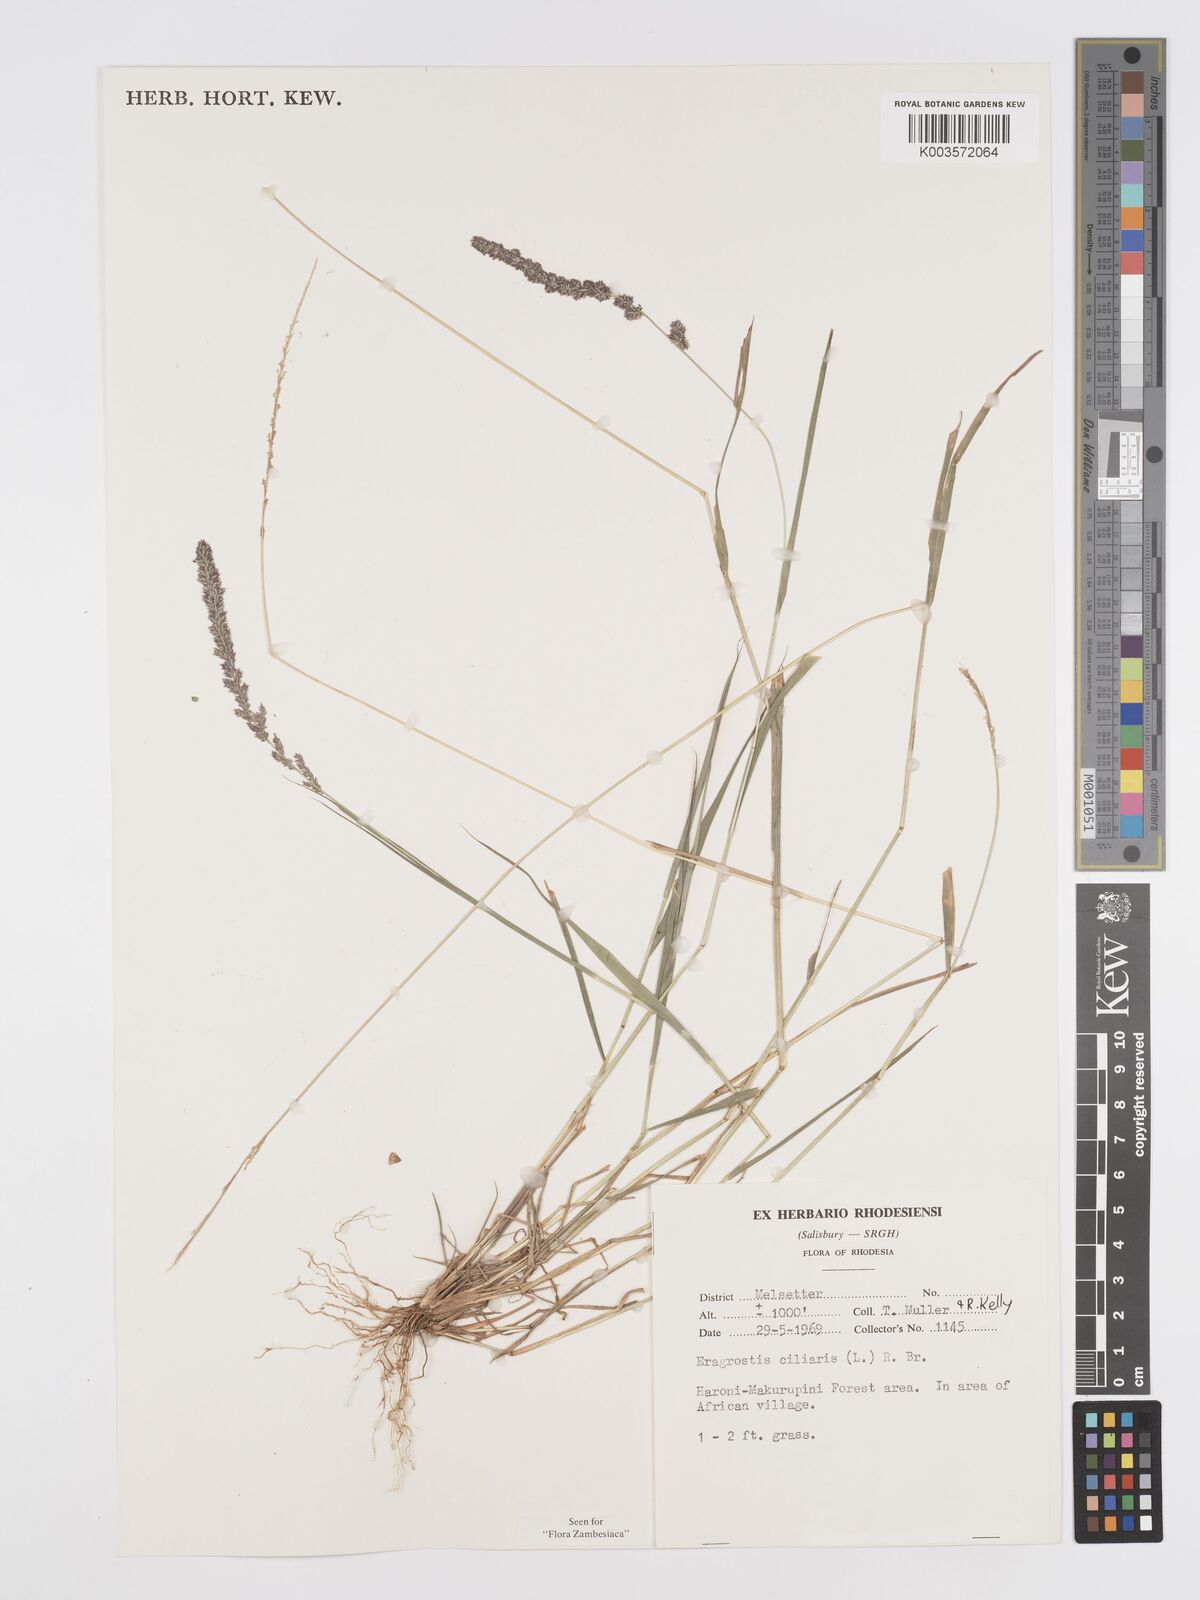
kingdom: Plantae
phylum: Tracheophyta
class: Liliopsida
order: Poales
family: Poaceae
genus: Eragrostis
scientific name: Eragrostis ciliaris
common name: Gophertail lovegrass
